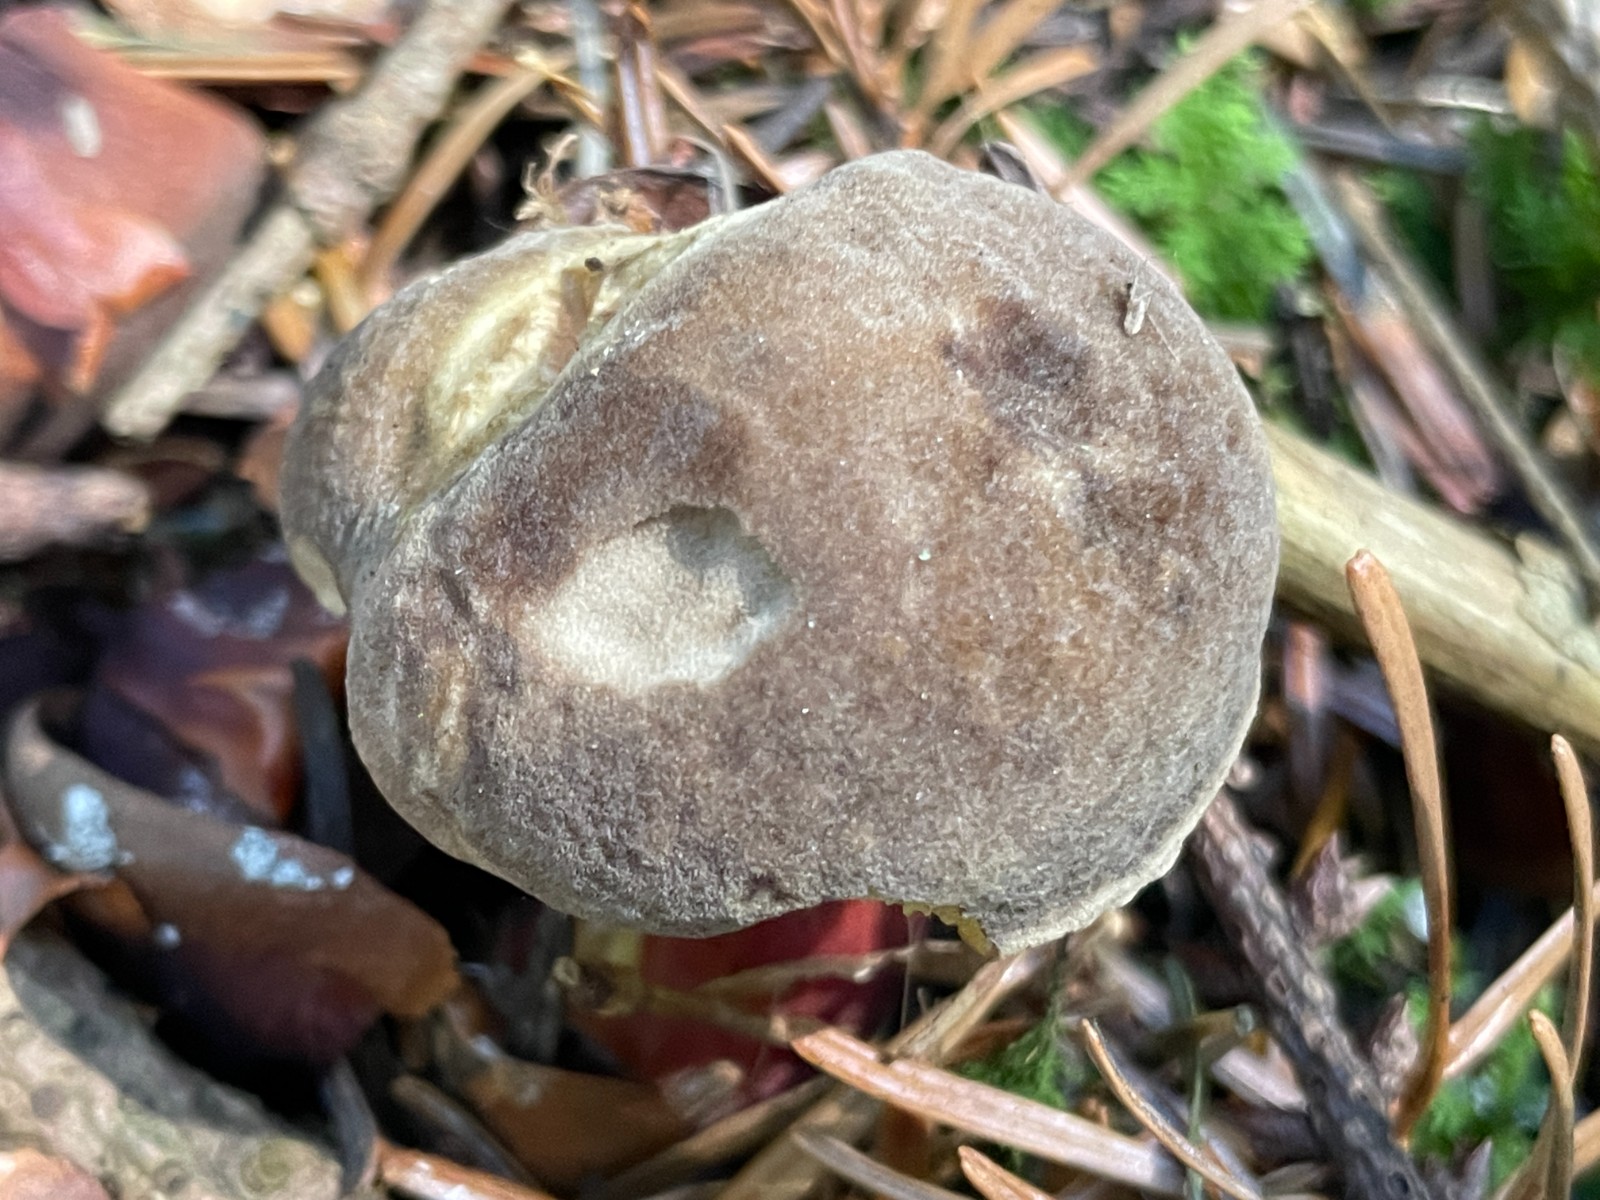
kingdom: Fungi
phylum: Basidiomycota
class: Agaricomycetes
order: Boletales
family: Boletaceae
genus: Xerocomellus
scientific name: Xerocomellus chrysenteron
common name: rødsprukken rørhat
